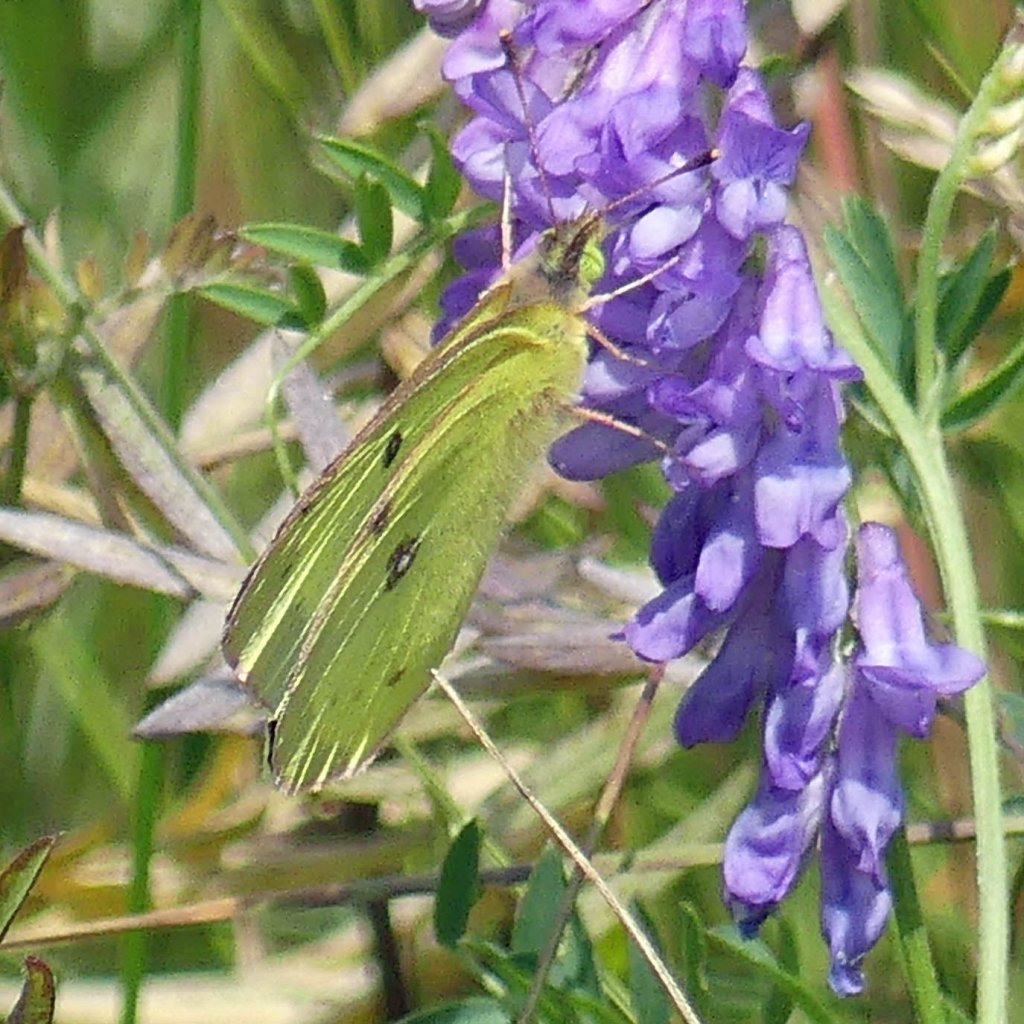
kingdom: Animalia
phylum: Arthropoda
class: Insecta
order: Lepidoptera
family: Pieridae
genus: Colias
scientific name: Colias philodice
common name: Clouded Sulphur
